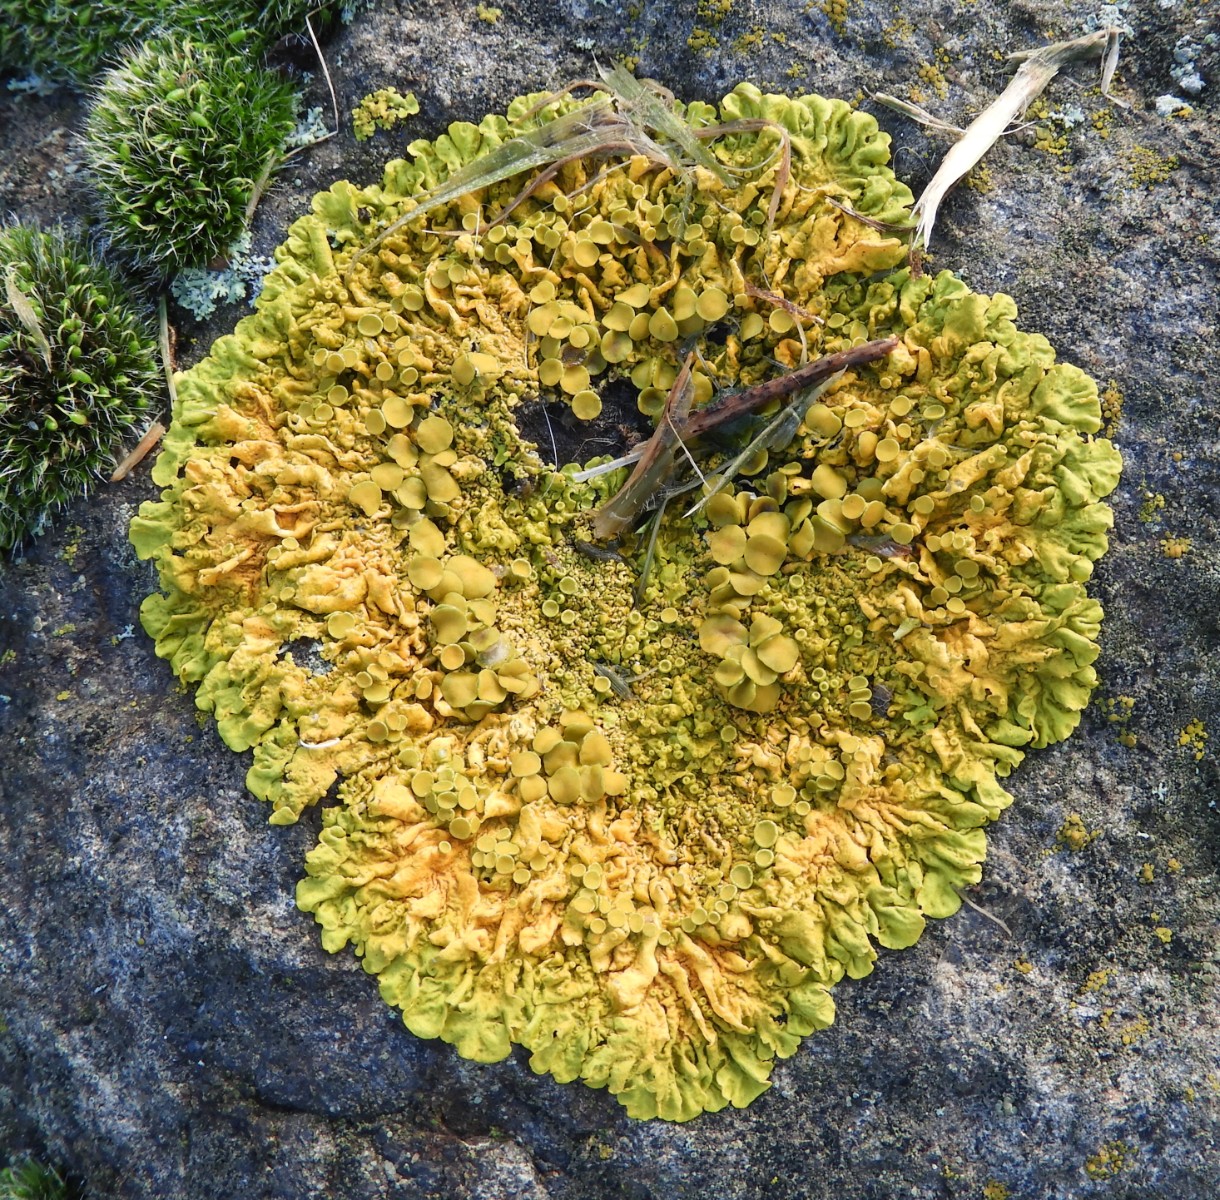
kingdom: Fungi
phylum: Ascomycota
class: Lecanoromycetes
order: Teloschistales
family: Teloschistaceae
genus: Xanthoria
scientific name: Xanthoria parietina
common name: almindelig væggelav
